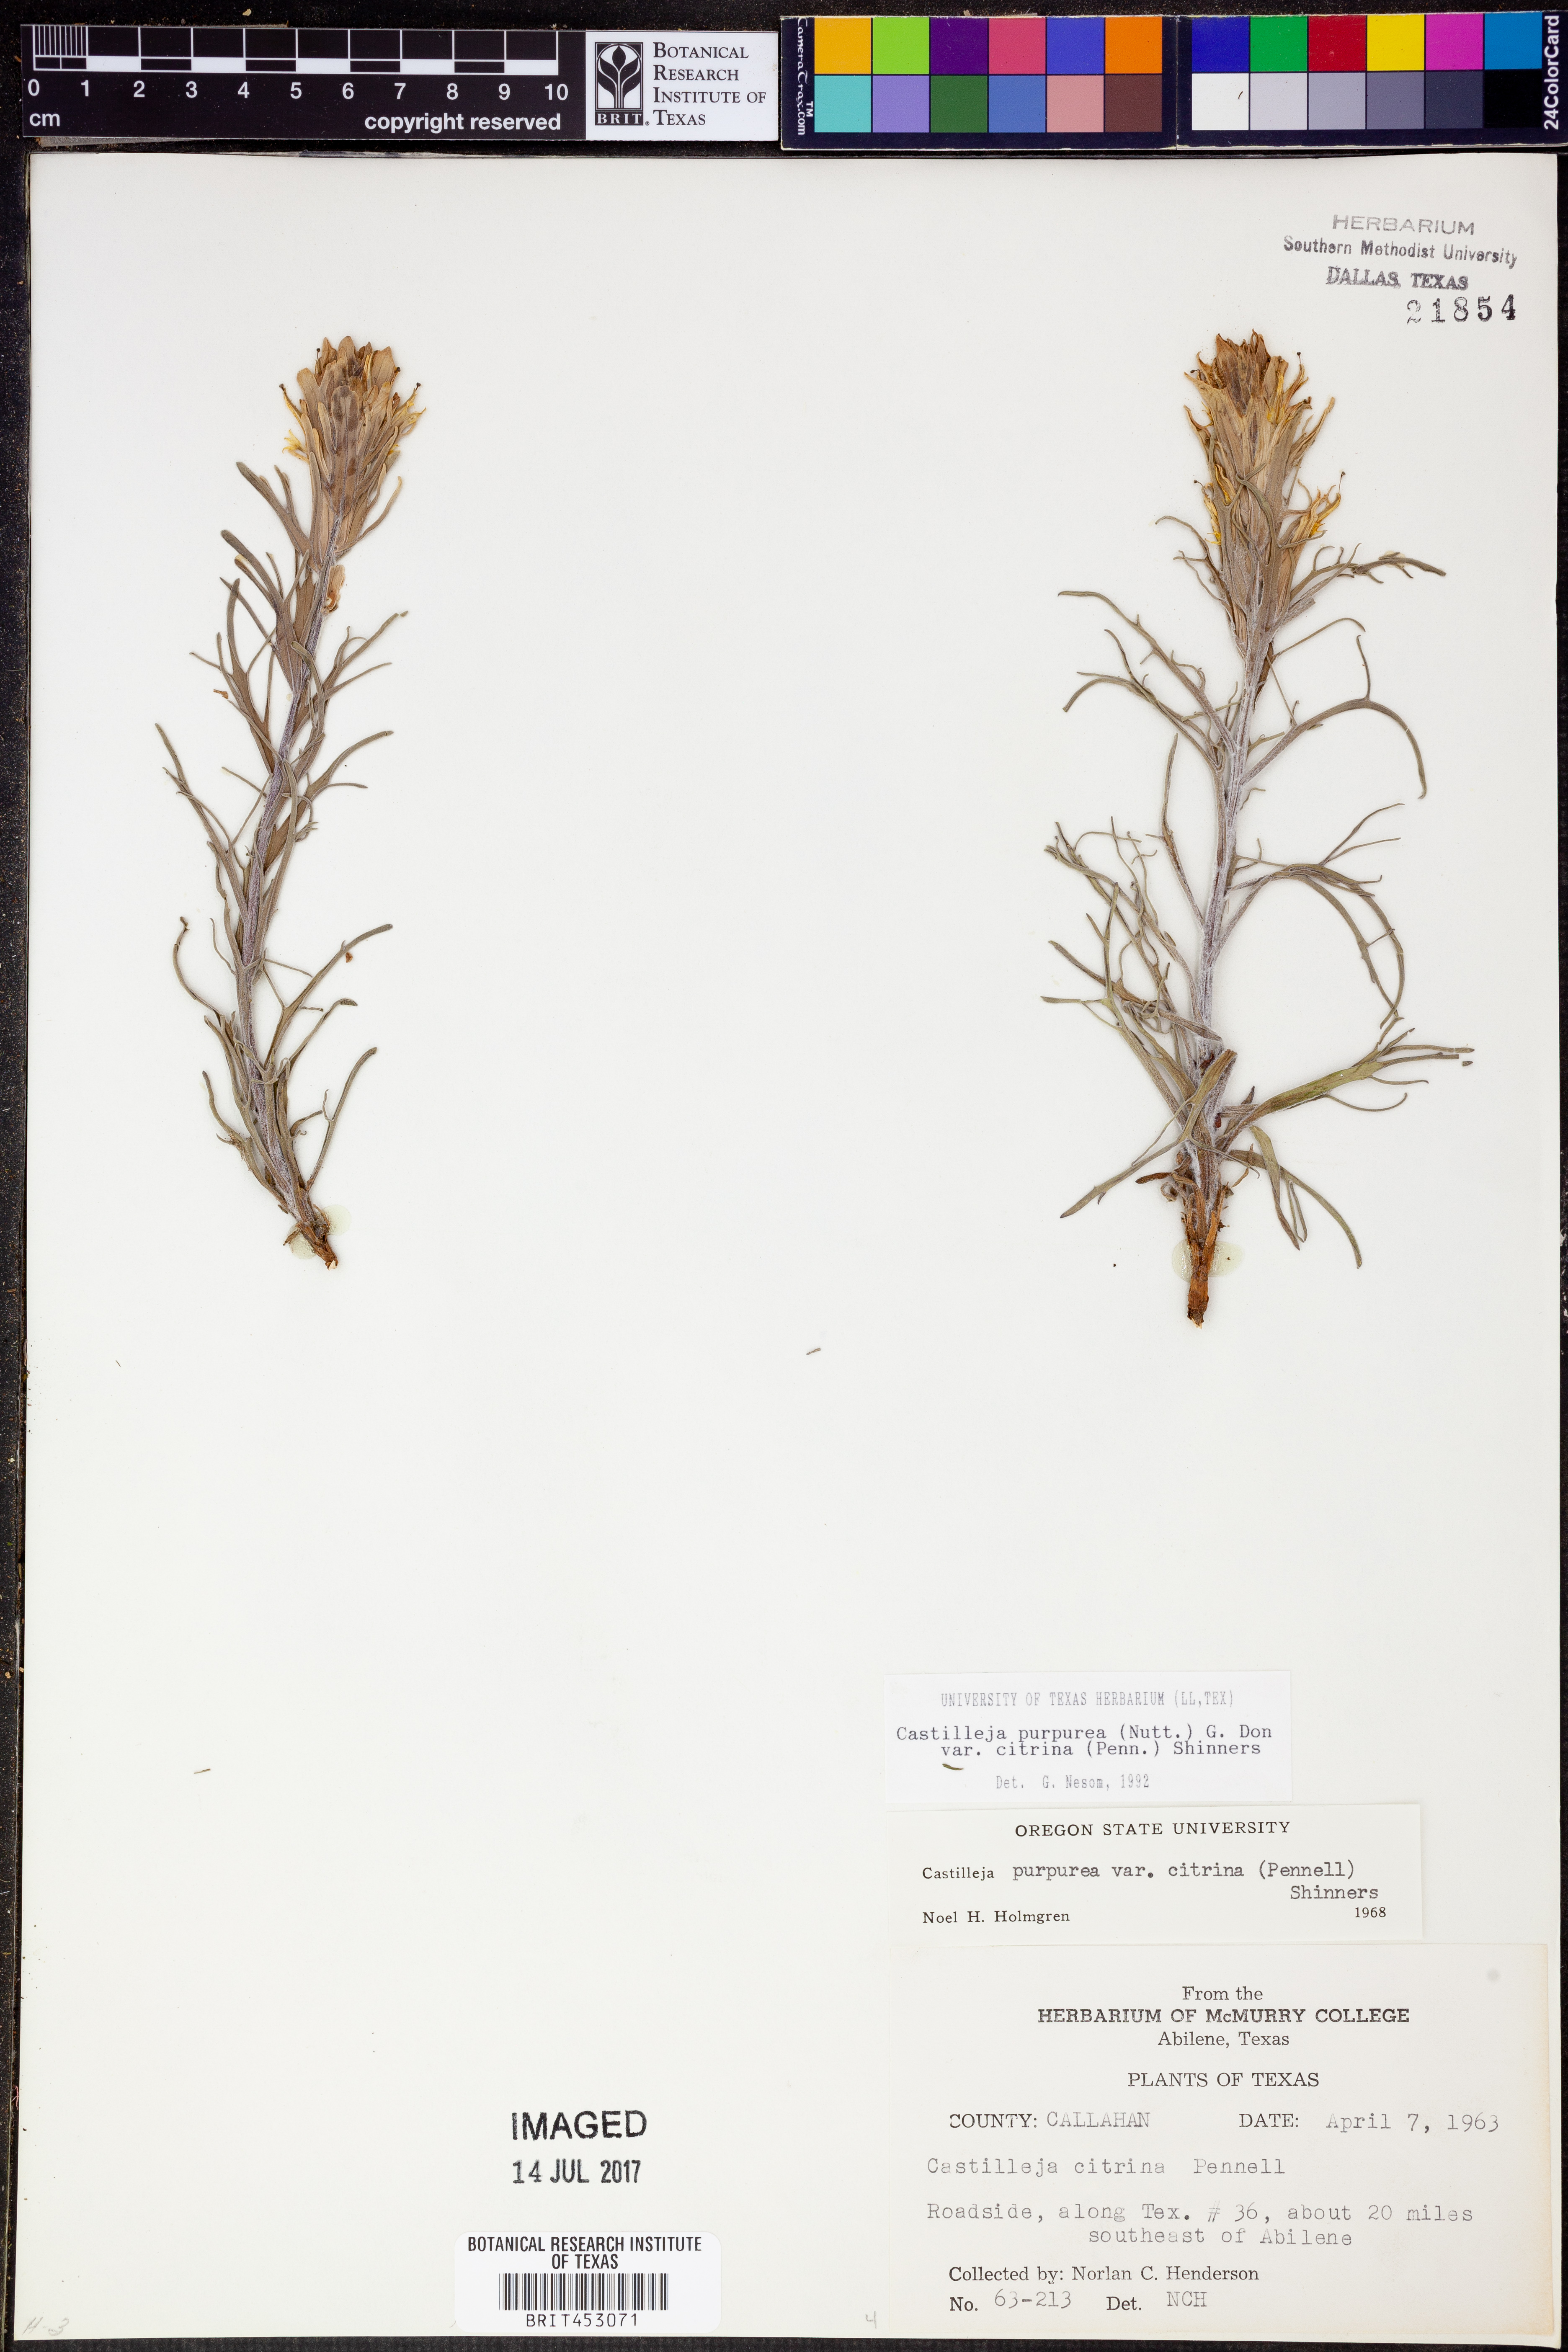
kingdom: Plantae
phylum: Tracheophyta
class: Magnoliopsida
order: Lamiales
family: Orobanchaceae
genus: Castilleja
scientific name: Castilleja citrina
